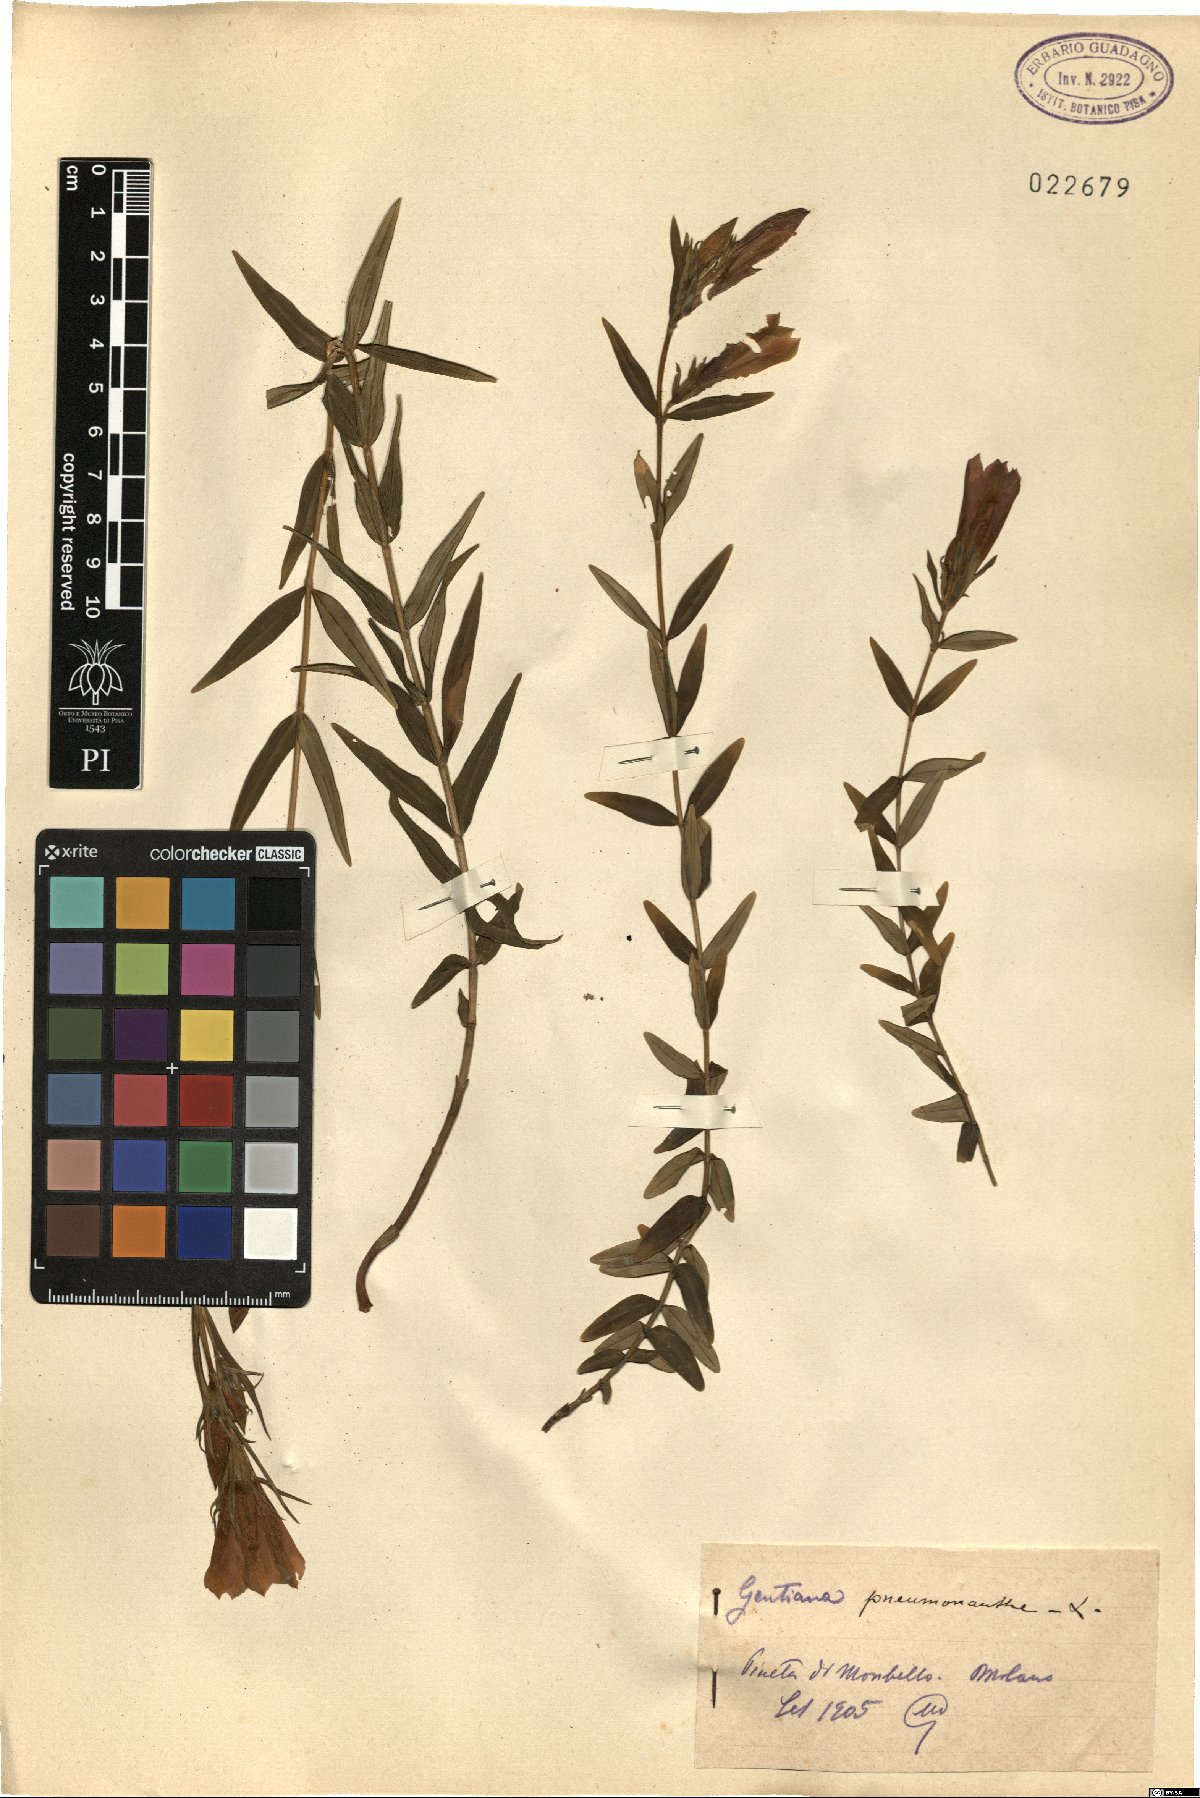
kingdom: Plantae
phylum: Tracheophyta
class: Magnoliopsida
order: Gentianales
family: Gentianaceae
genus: Gentiana
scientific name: Gentiana pneumonanthe
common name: Marsh gentian
